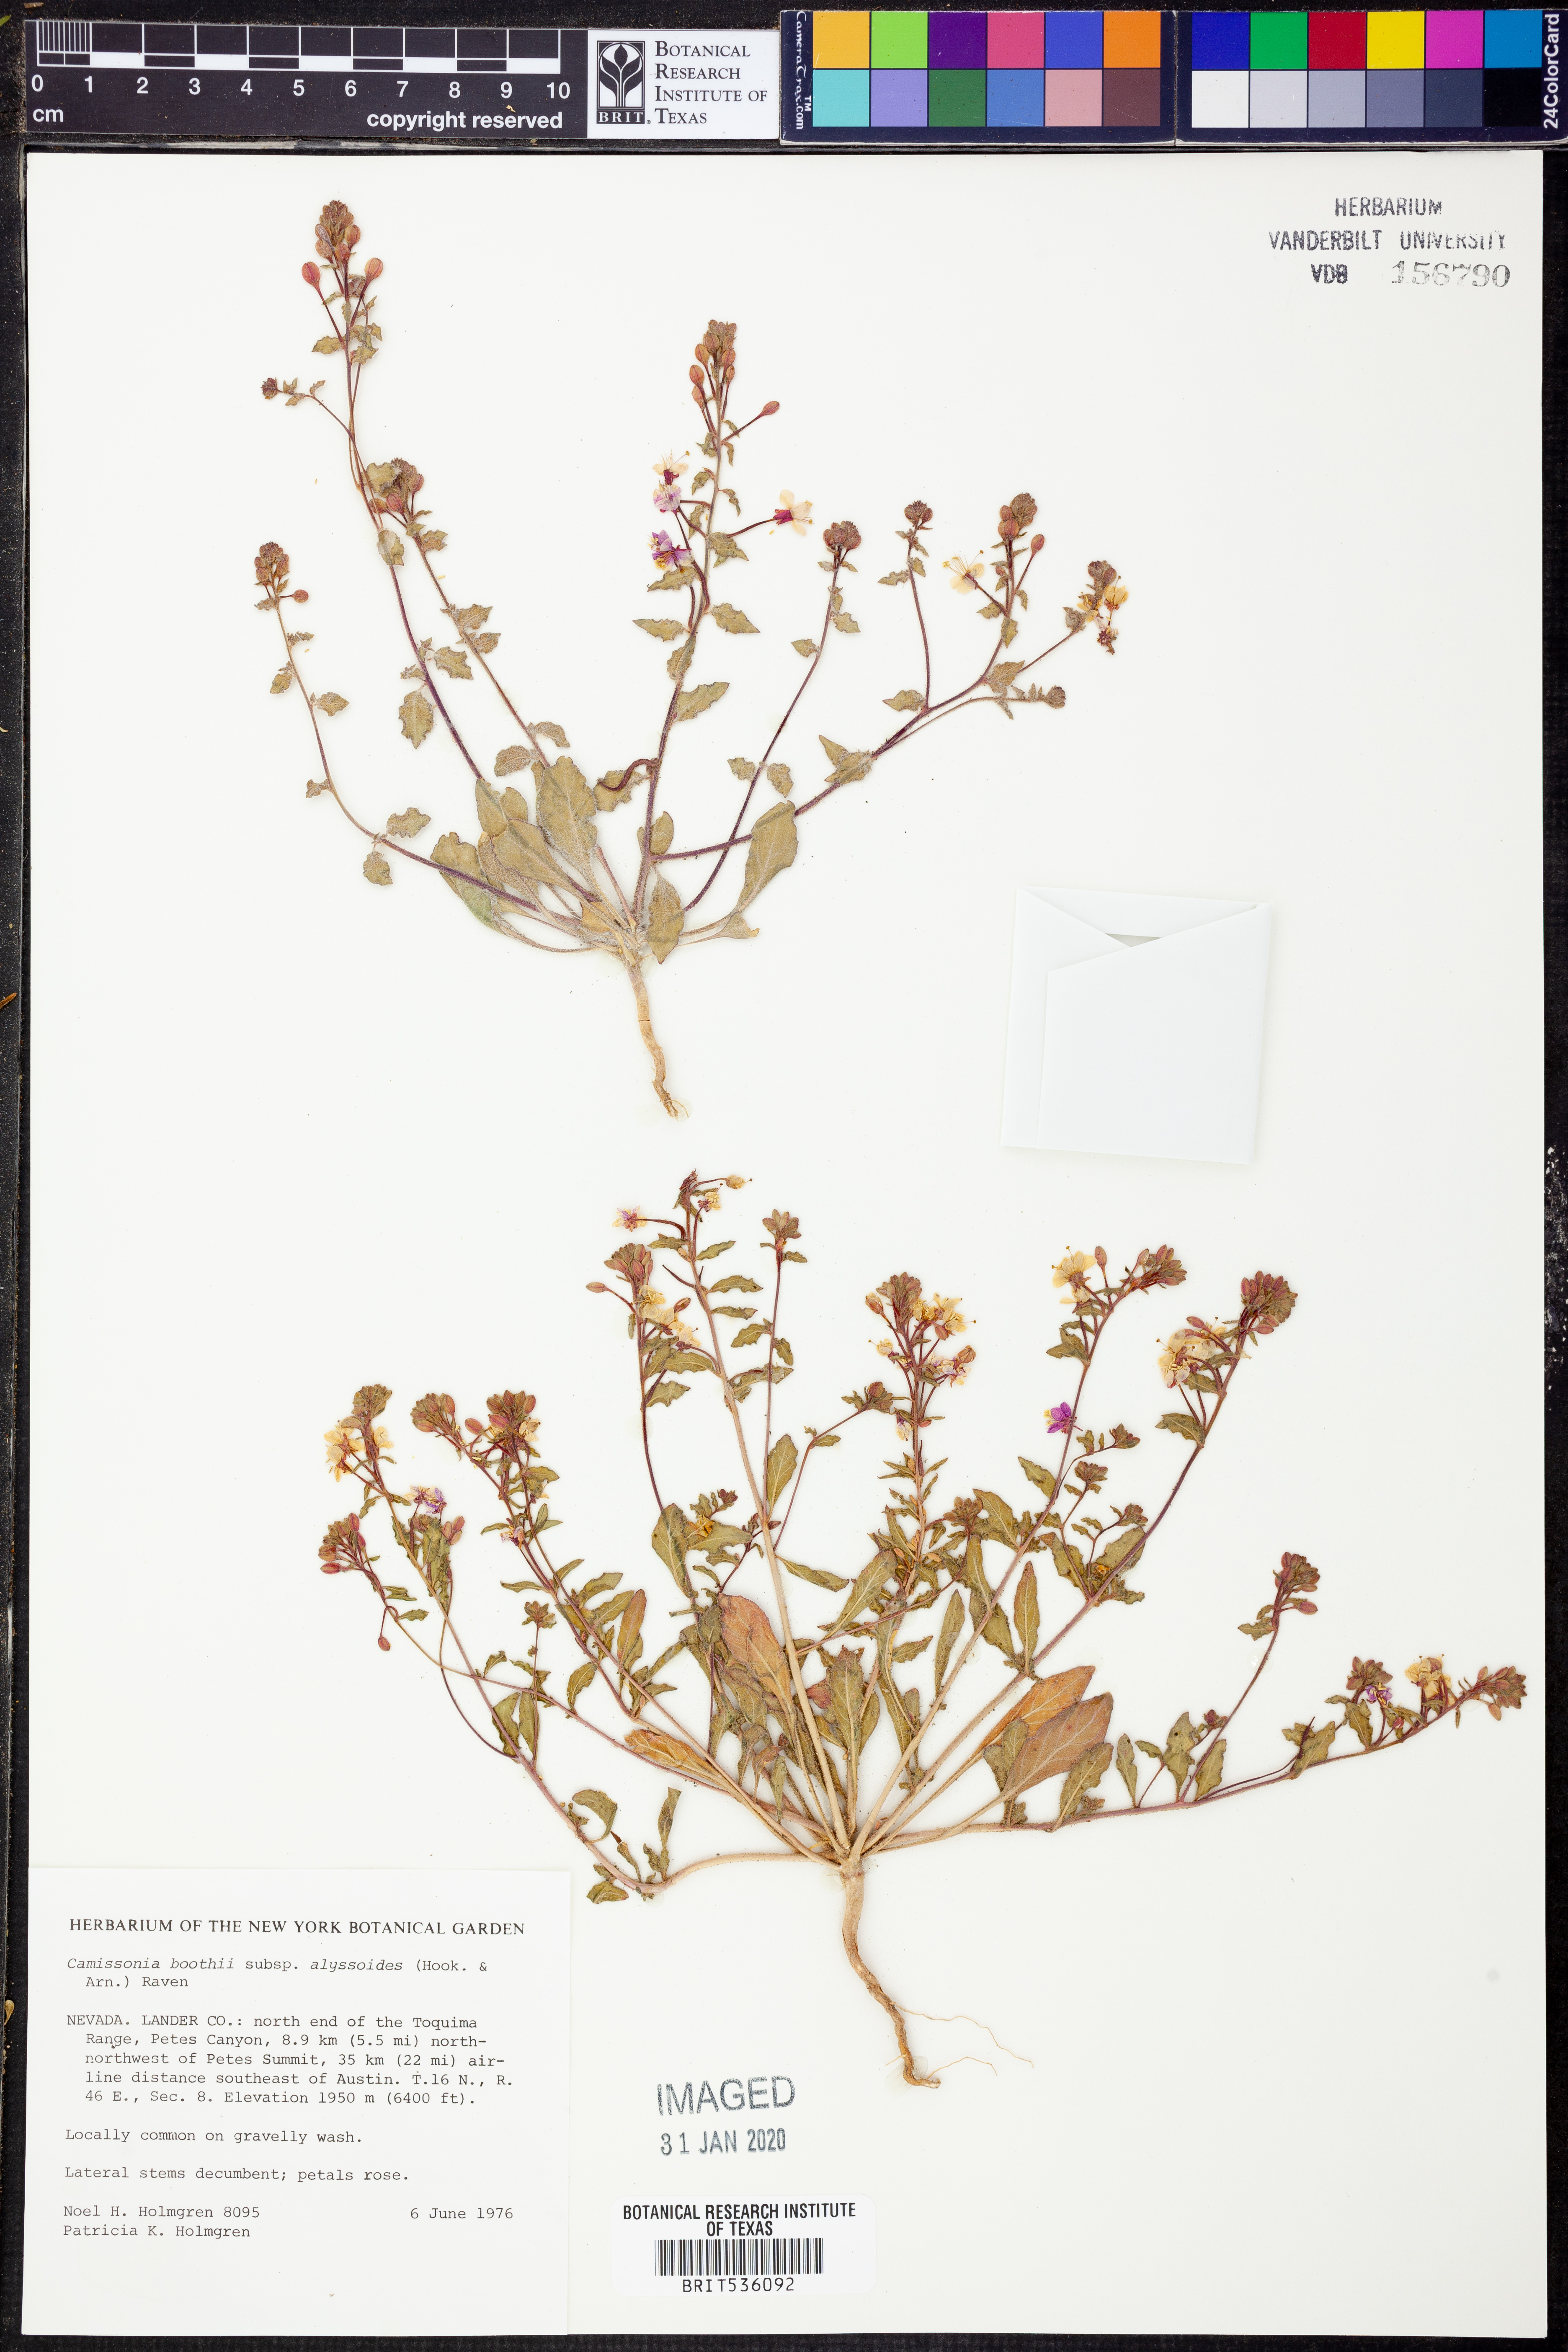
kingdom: Plantae
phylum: Tracheophyta
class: Magnoliopsida
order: Myrtales
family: Onagraceae
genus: Eremothera
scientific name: Eremothera boothii
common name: Booth's evening primrose
